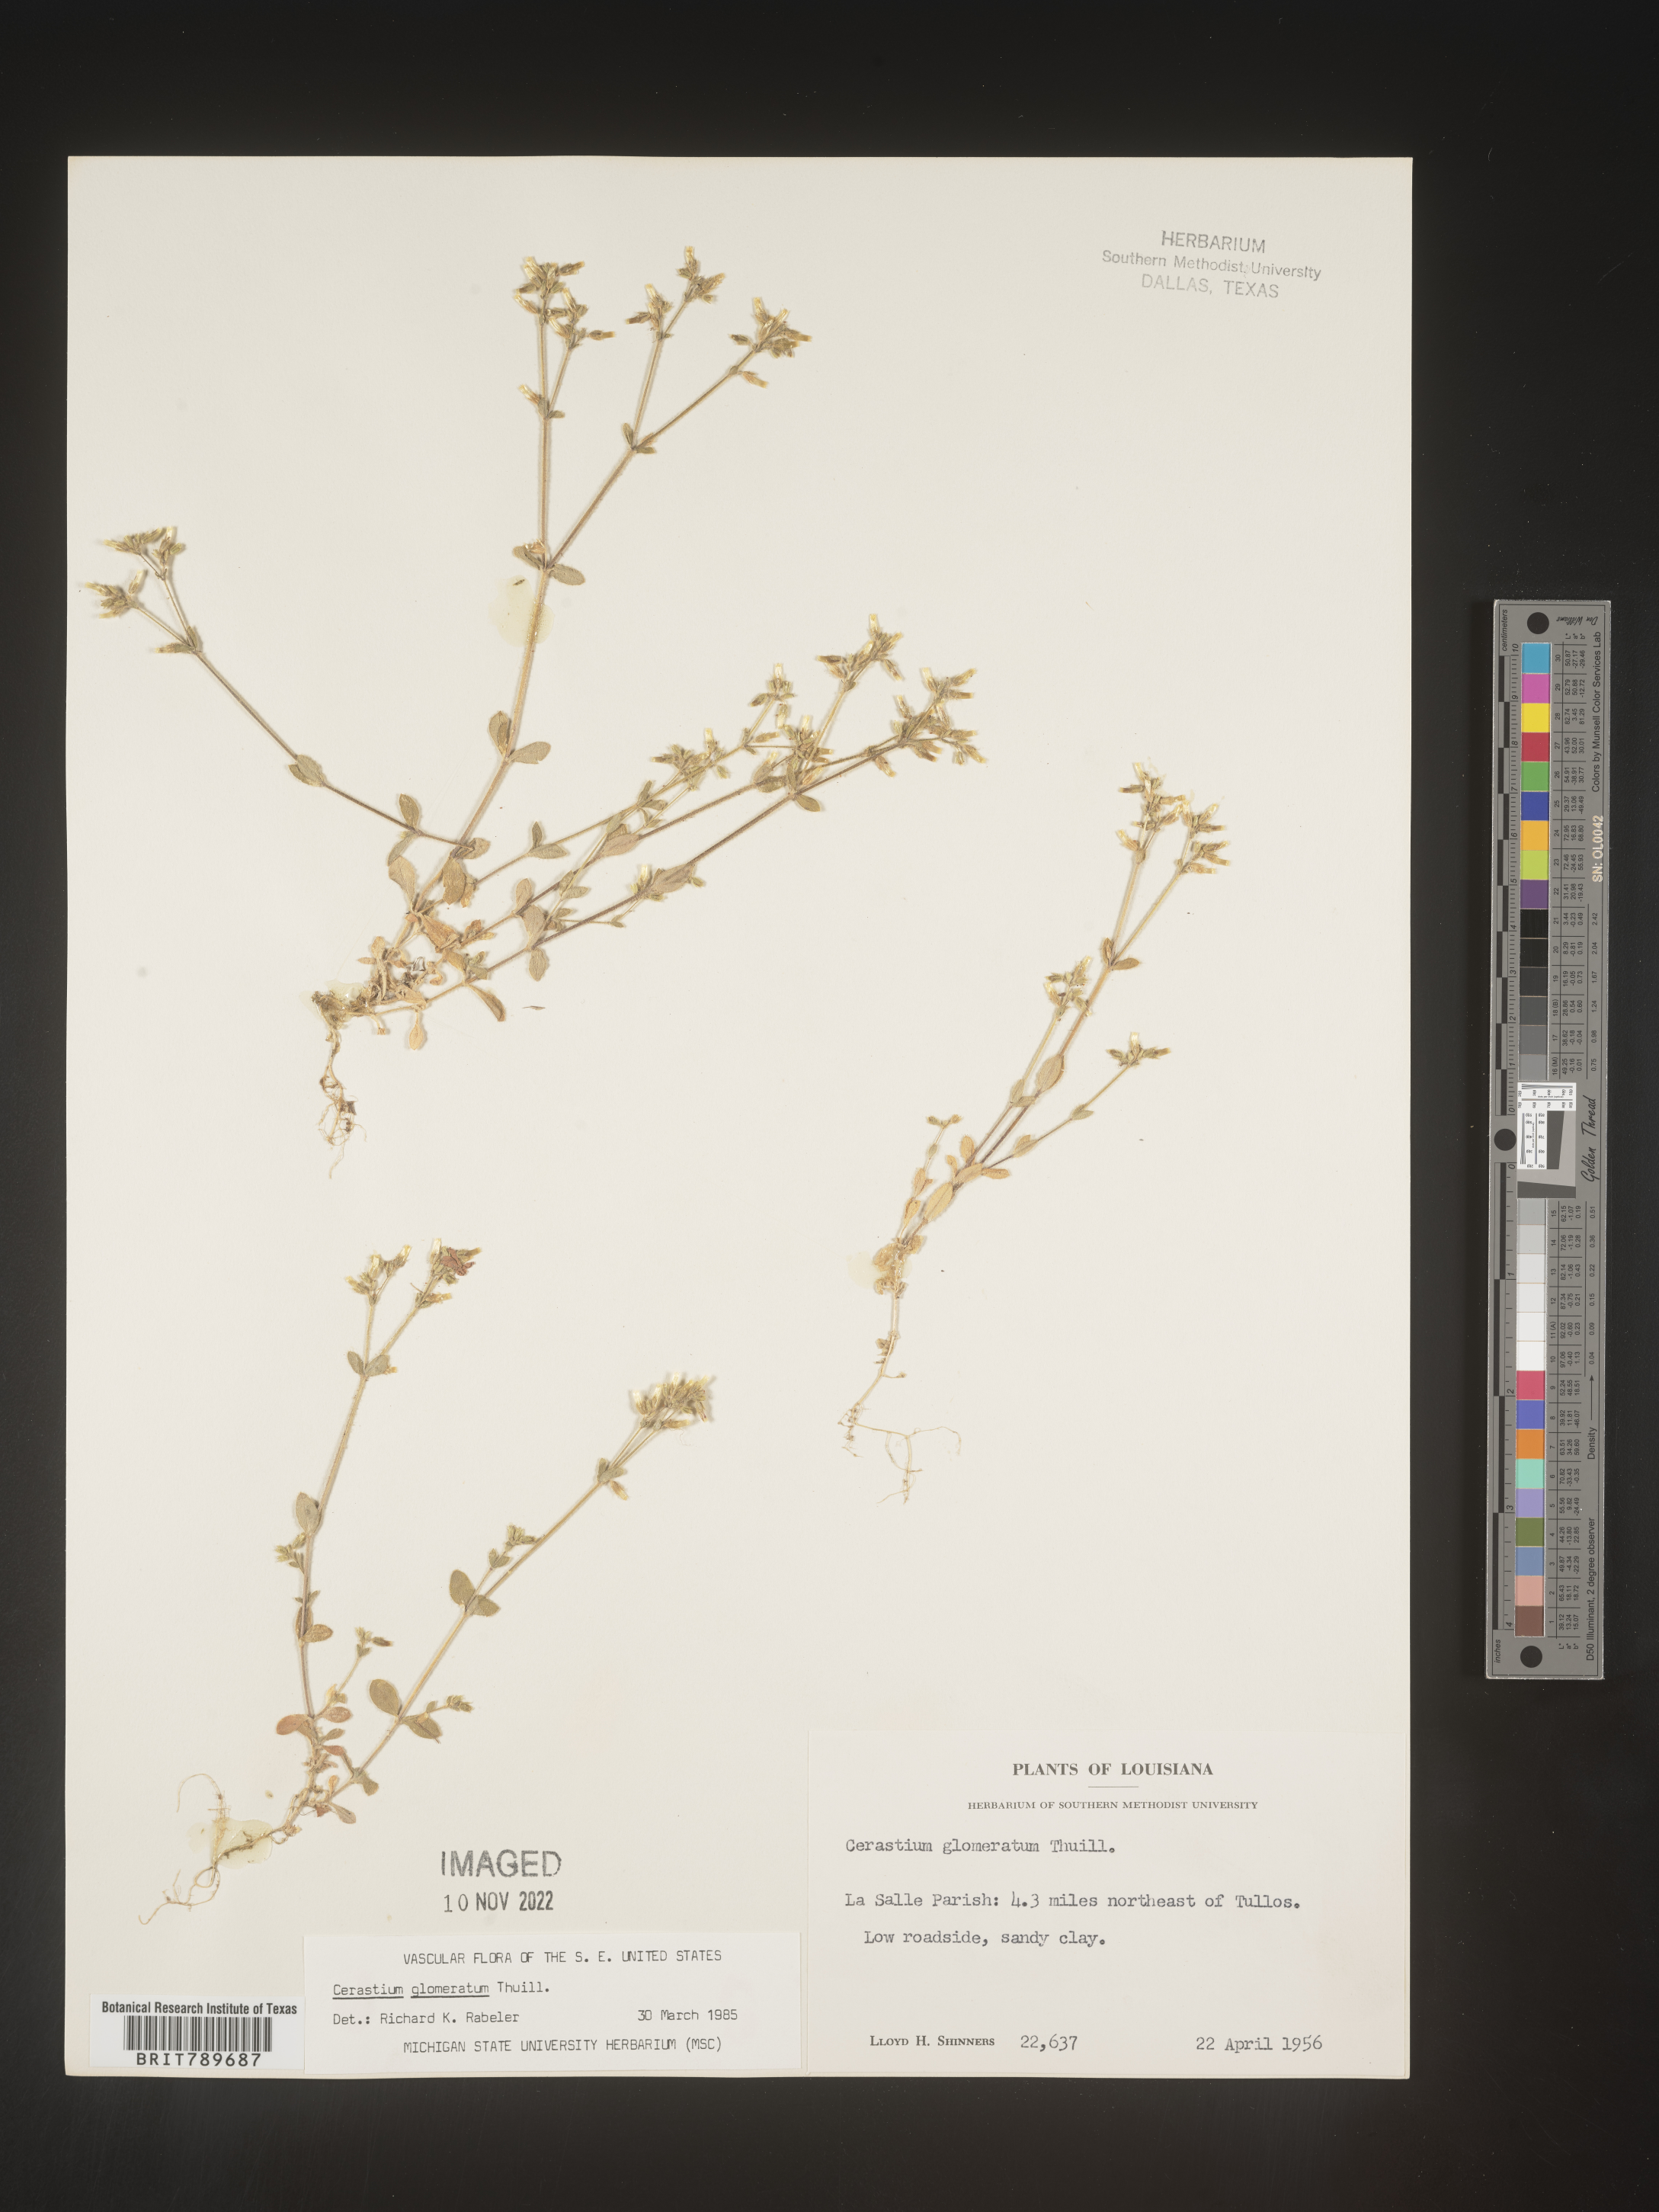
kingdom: Plantae
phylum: Tracheophyta
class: Magnoliopsida
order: Caryophyllales
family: Caryophyllaceae
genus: Cerastium
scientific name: Cerastium glomeratum
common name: Sticky chickweed
